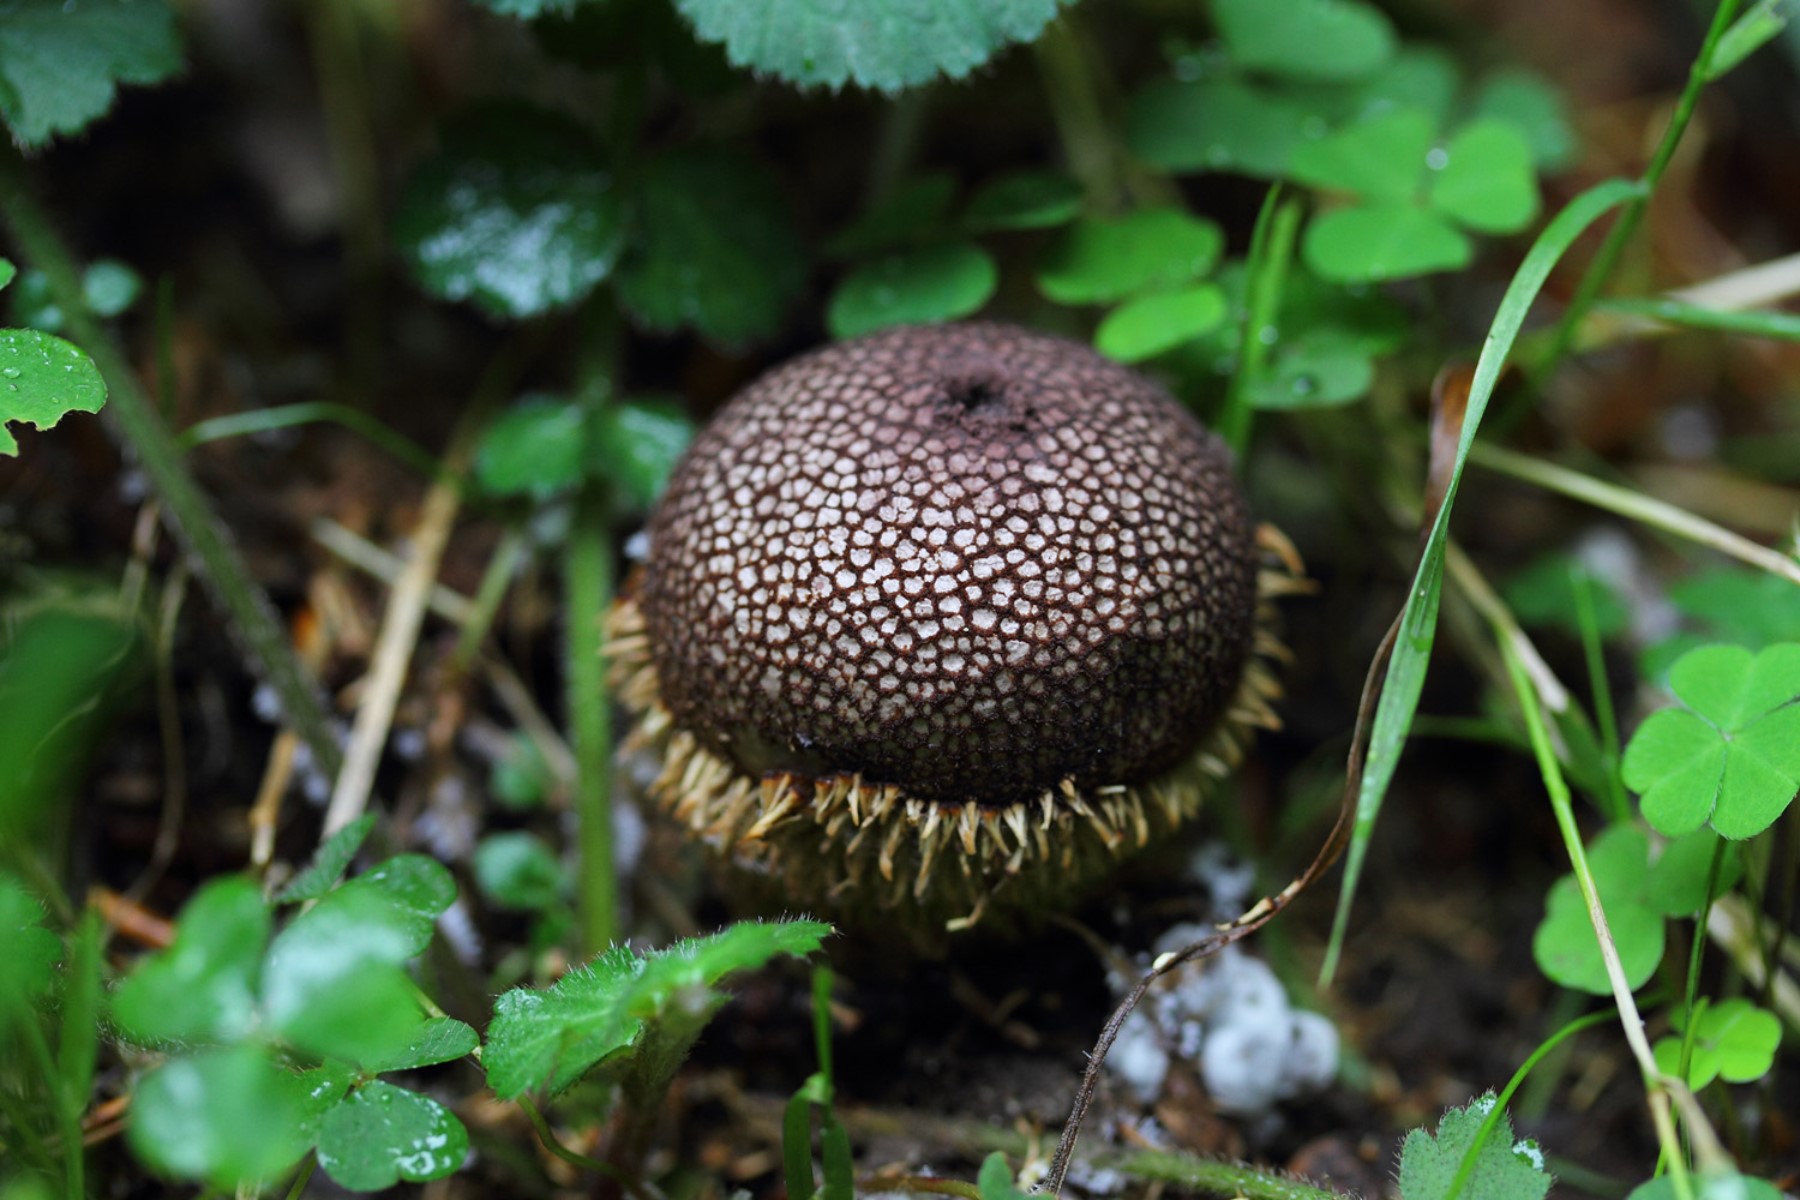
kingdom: Fungi
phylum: Basidiomycota
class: Agaricomycetes
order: Agaricales
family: Lycoperdaceae
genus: Lycoperdon
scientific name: Lycoperdon echinatum
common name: pindsvine-støvbold
